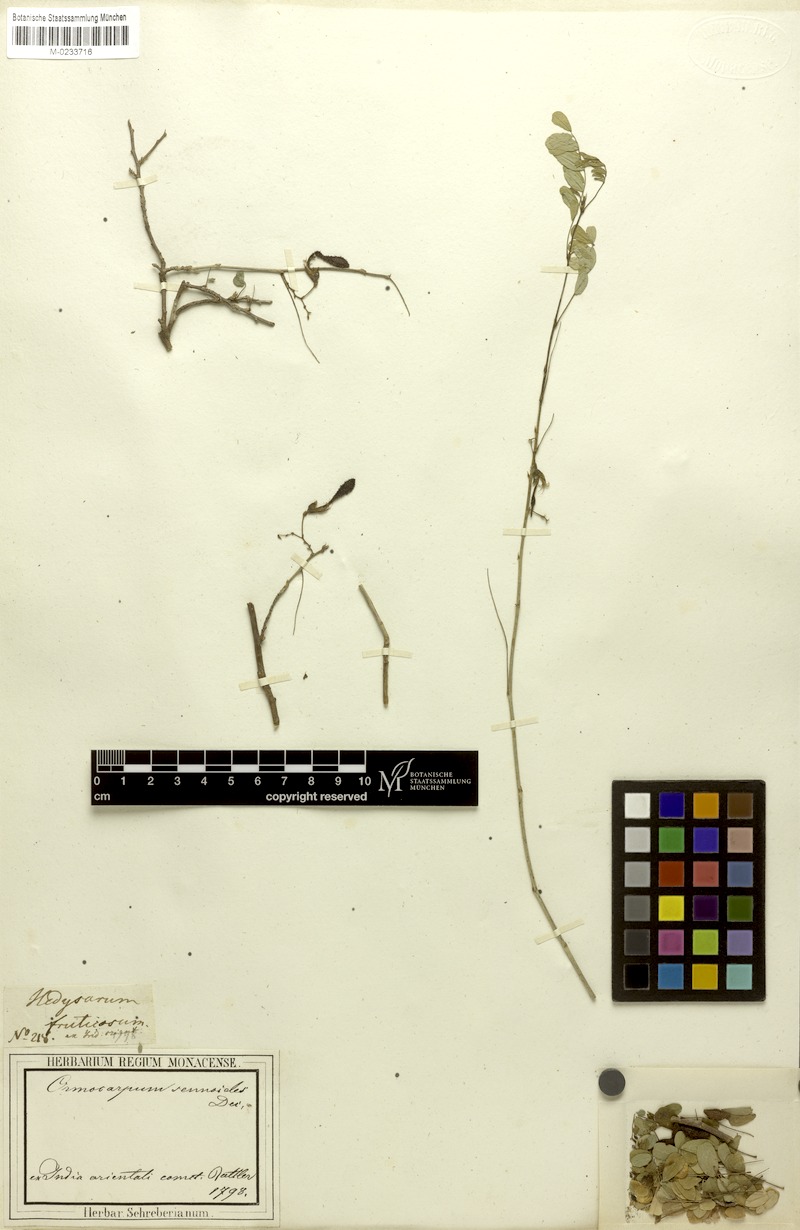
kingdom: Plantae
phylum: Tracheophyta
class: Magnoliopsida
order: Fabales
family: Fabaceae
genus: Ormocarpum
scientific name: Ormocarpum sennoides
